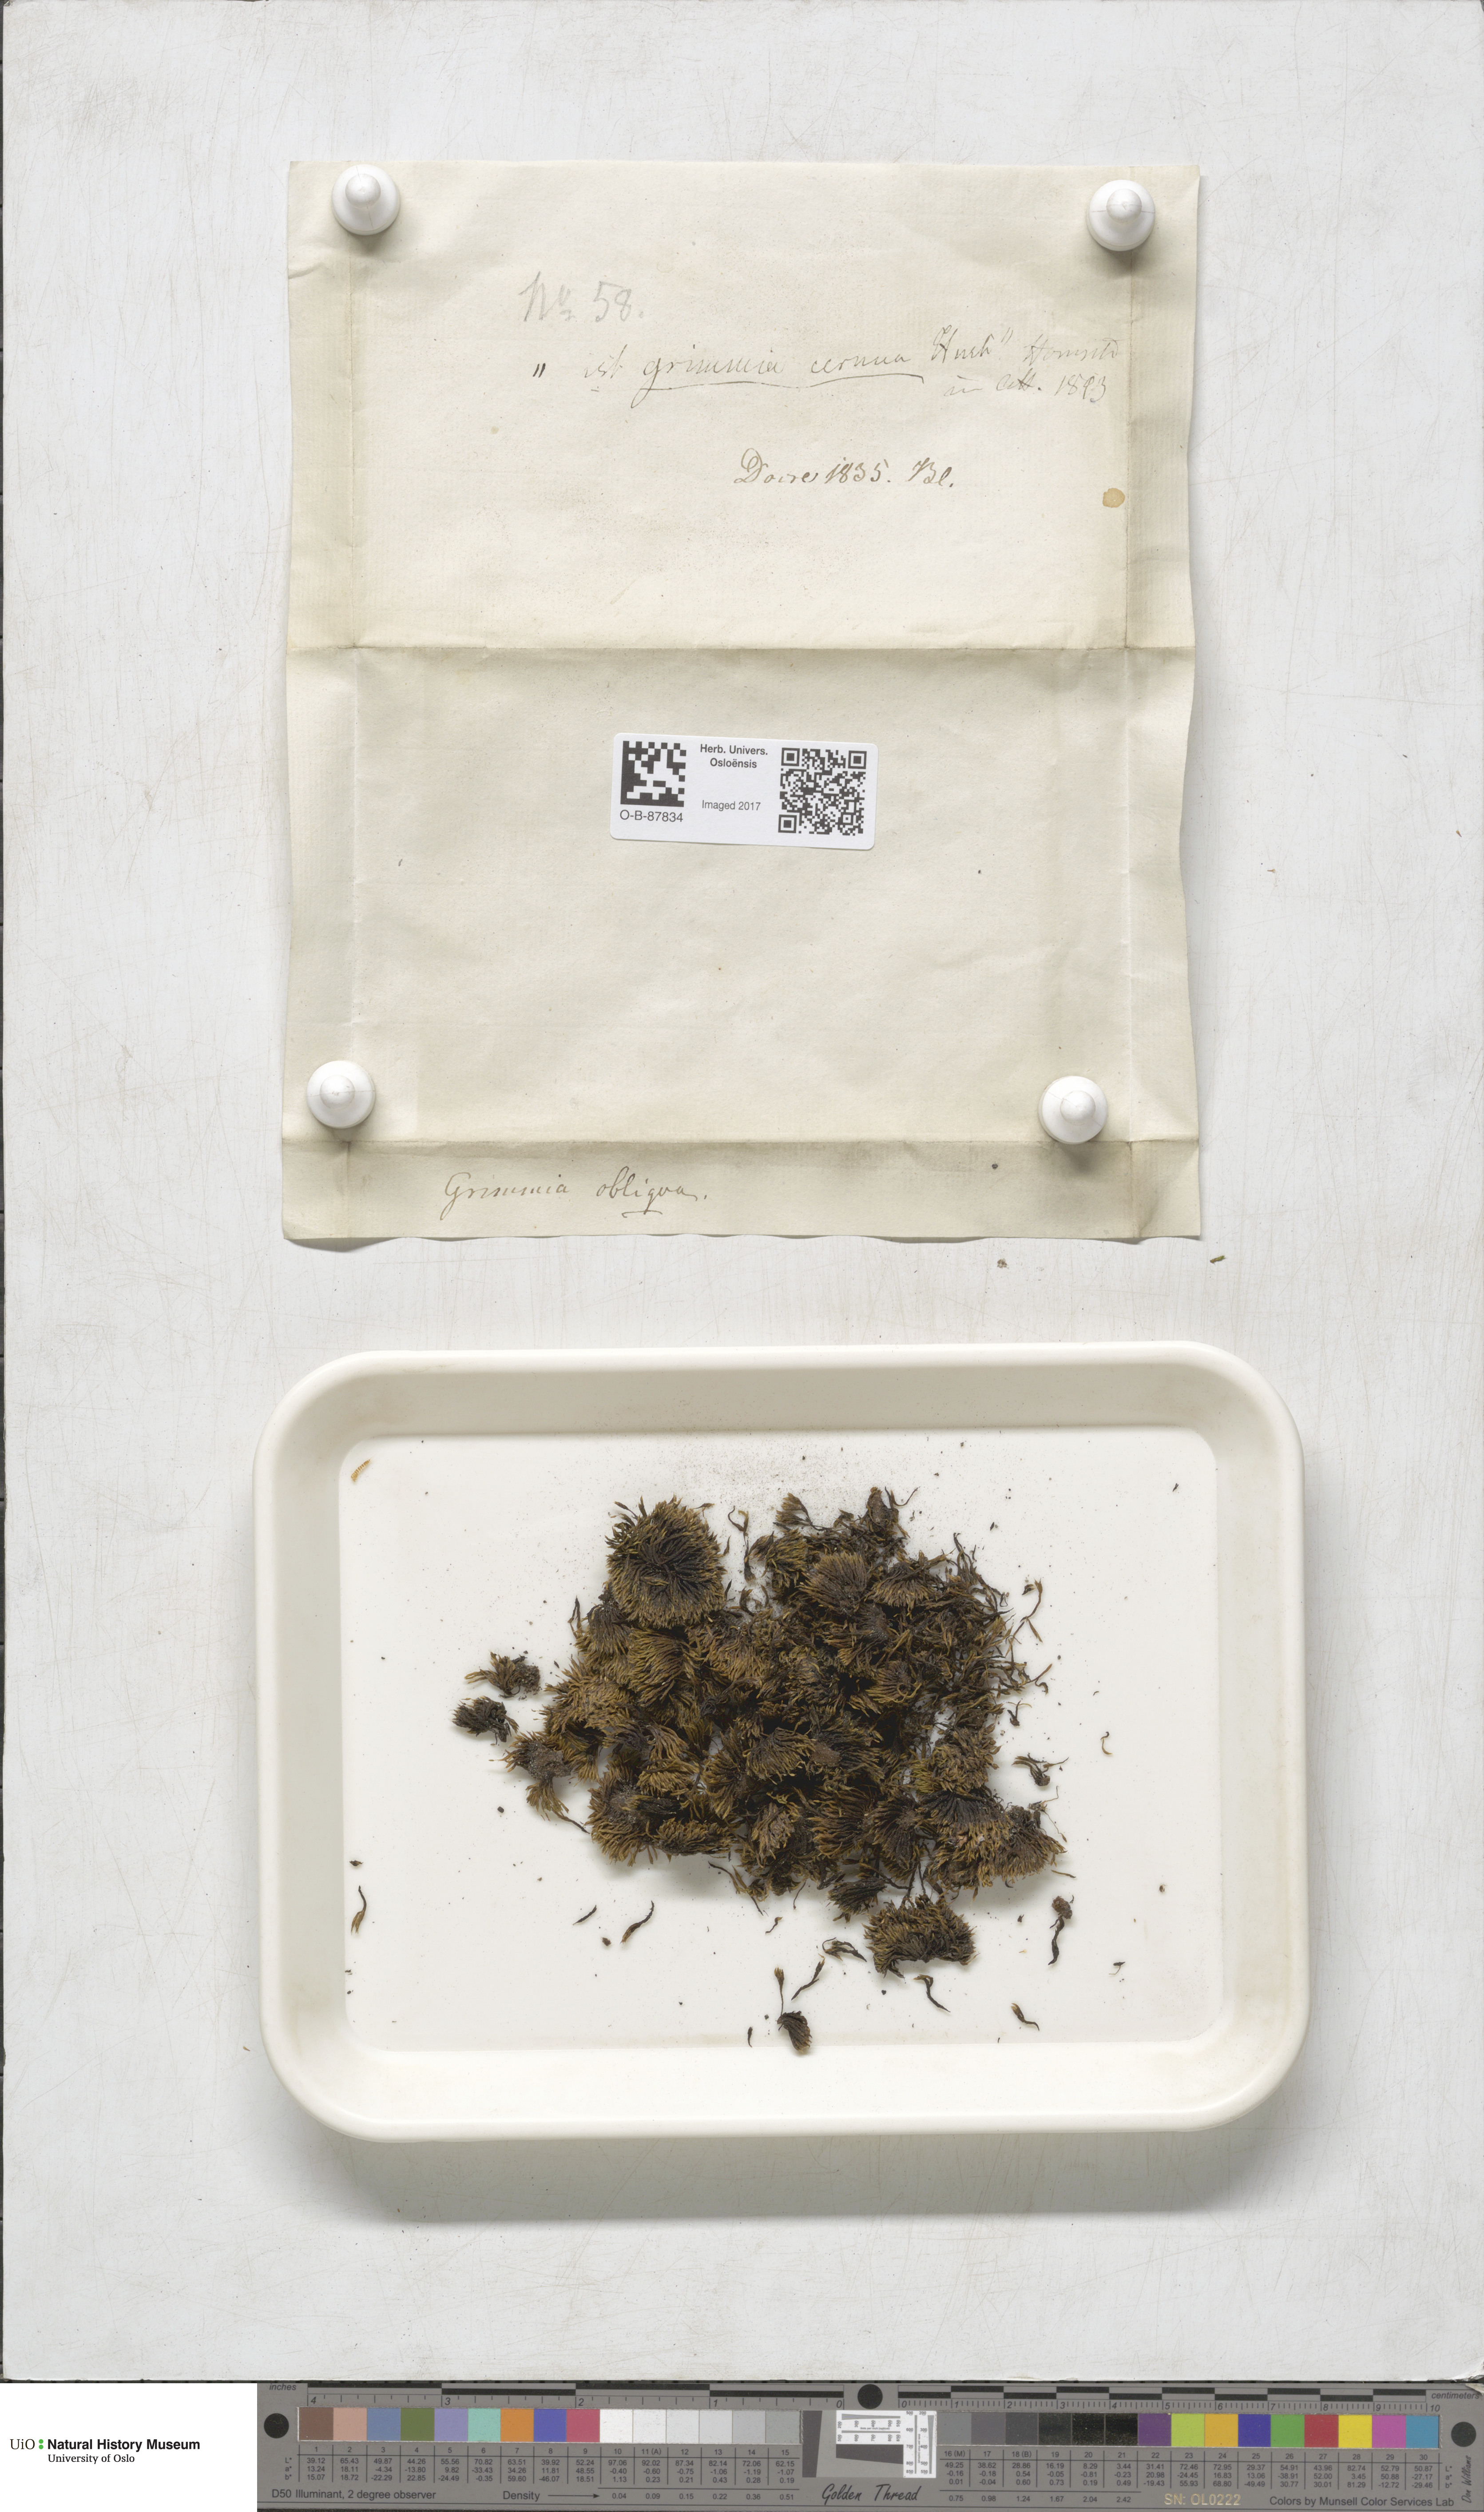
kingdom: Plantae
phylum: Bryophyta
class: Bryopsida
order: Grimmiales
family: Grimmiaceae
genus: Grimmia
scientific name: Grimmia ovalis
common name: Oval grimmia
